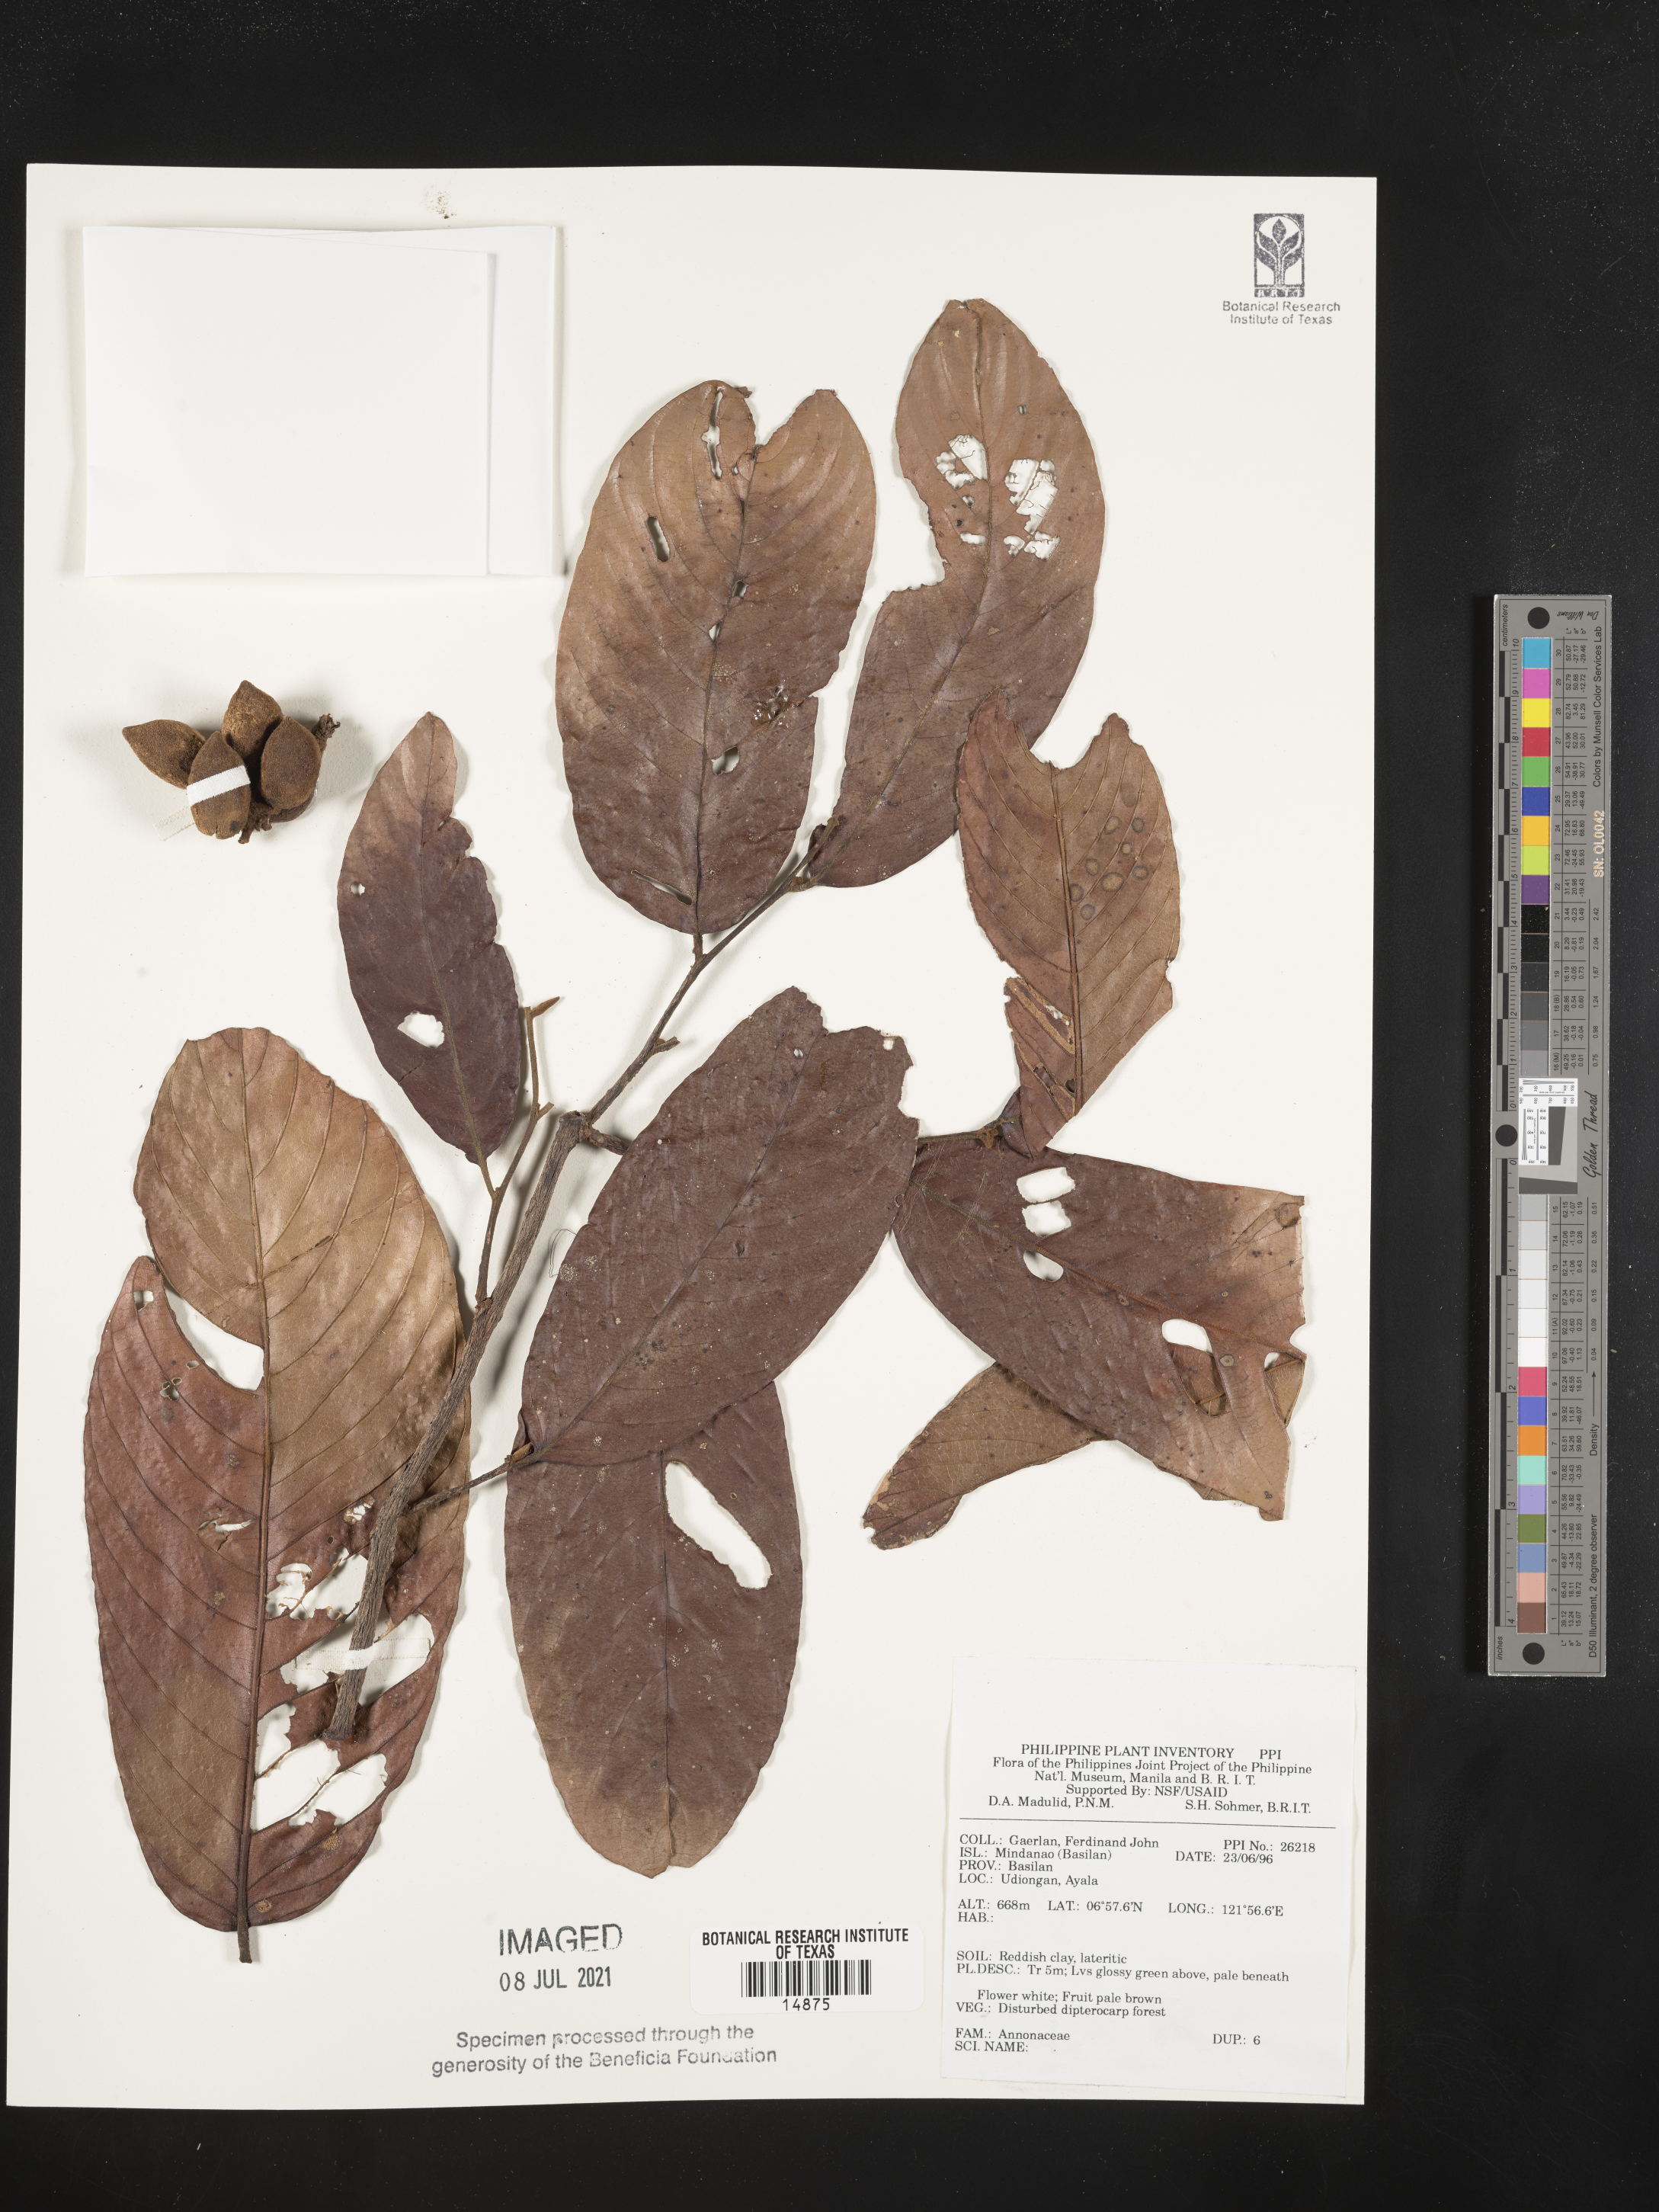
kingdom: Plantae
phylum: Tracheophyta
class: Magnoliopsida
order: Magnoliales
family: Annonaceae
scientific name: Annonaceae
